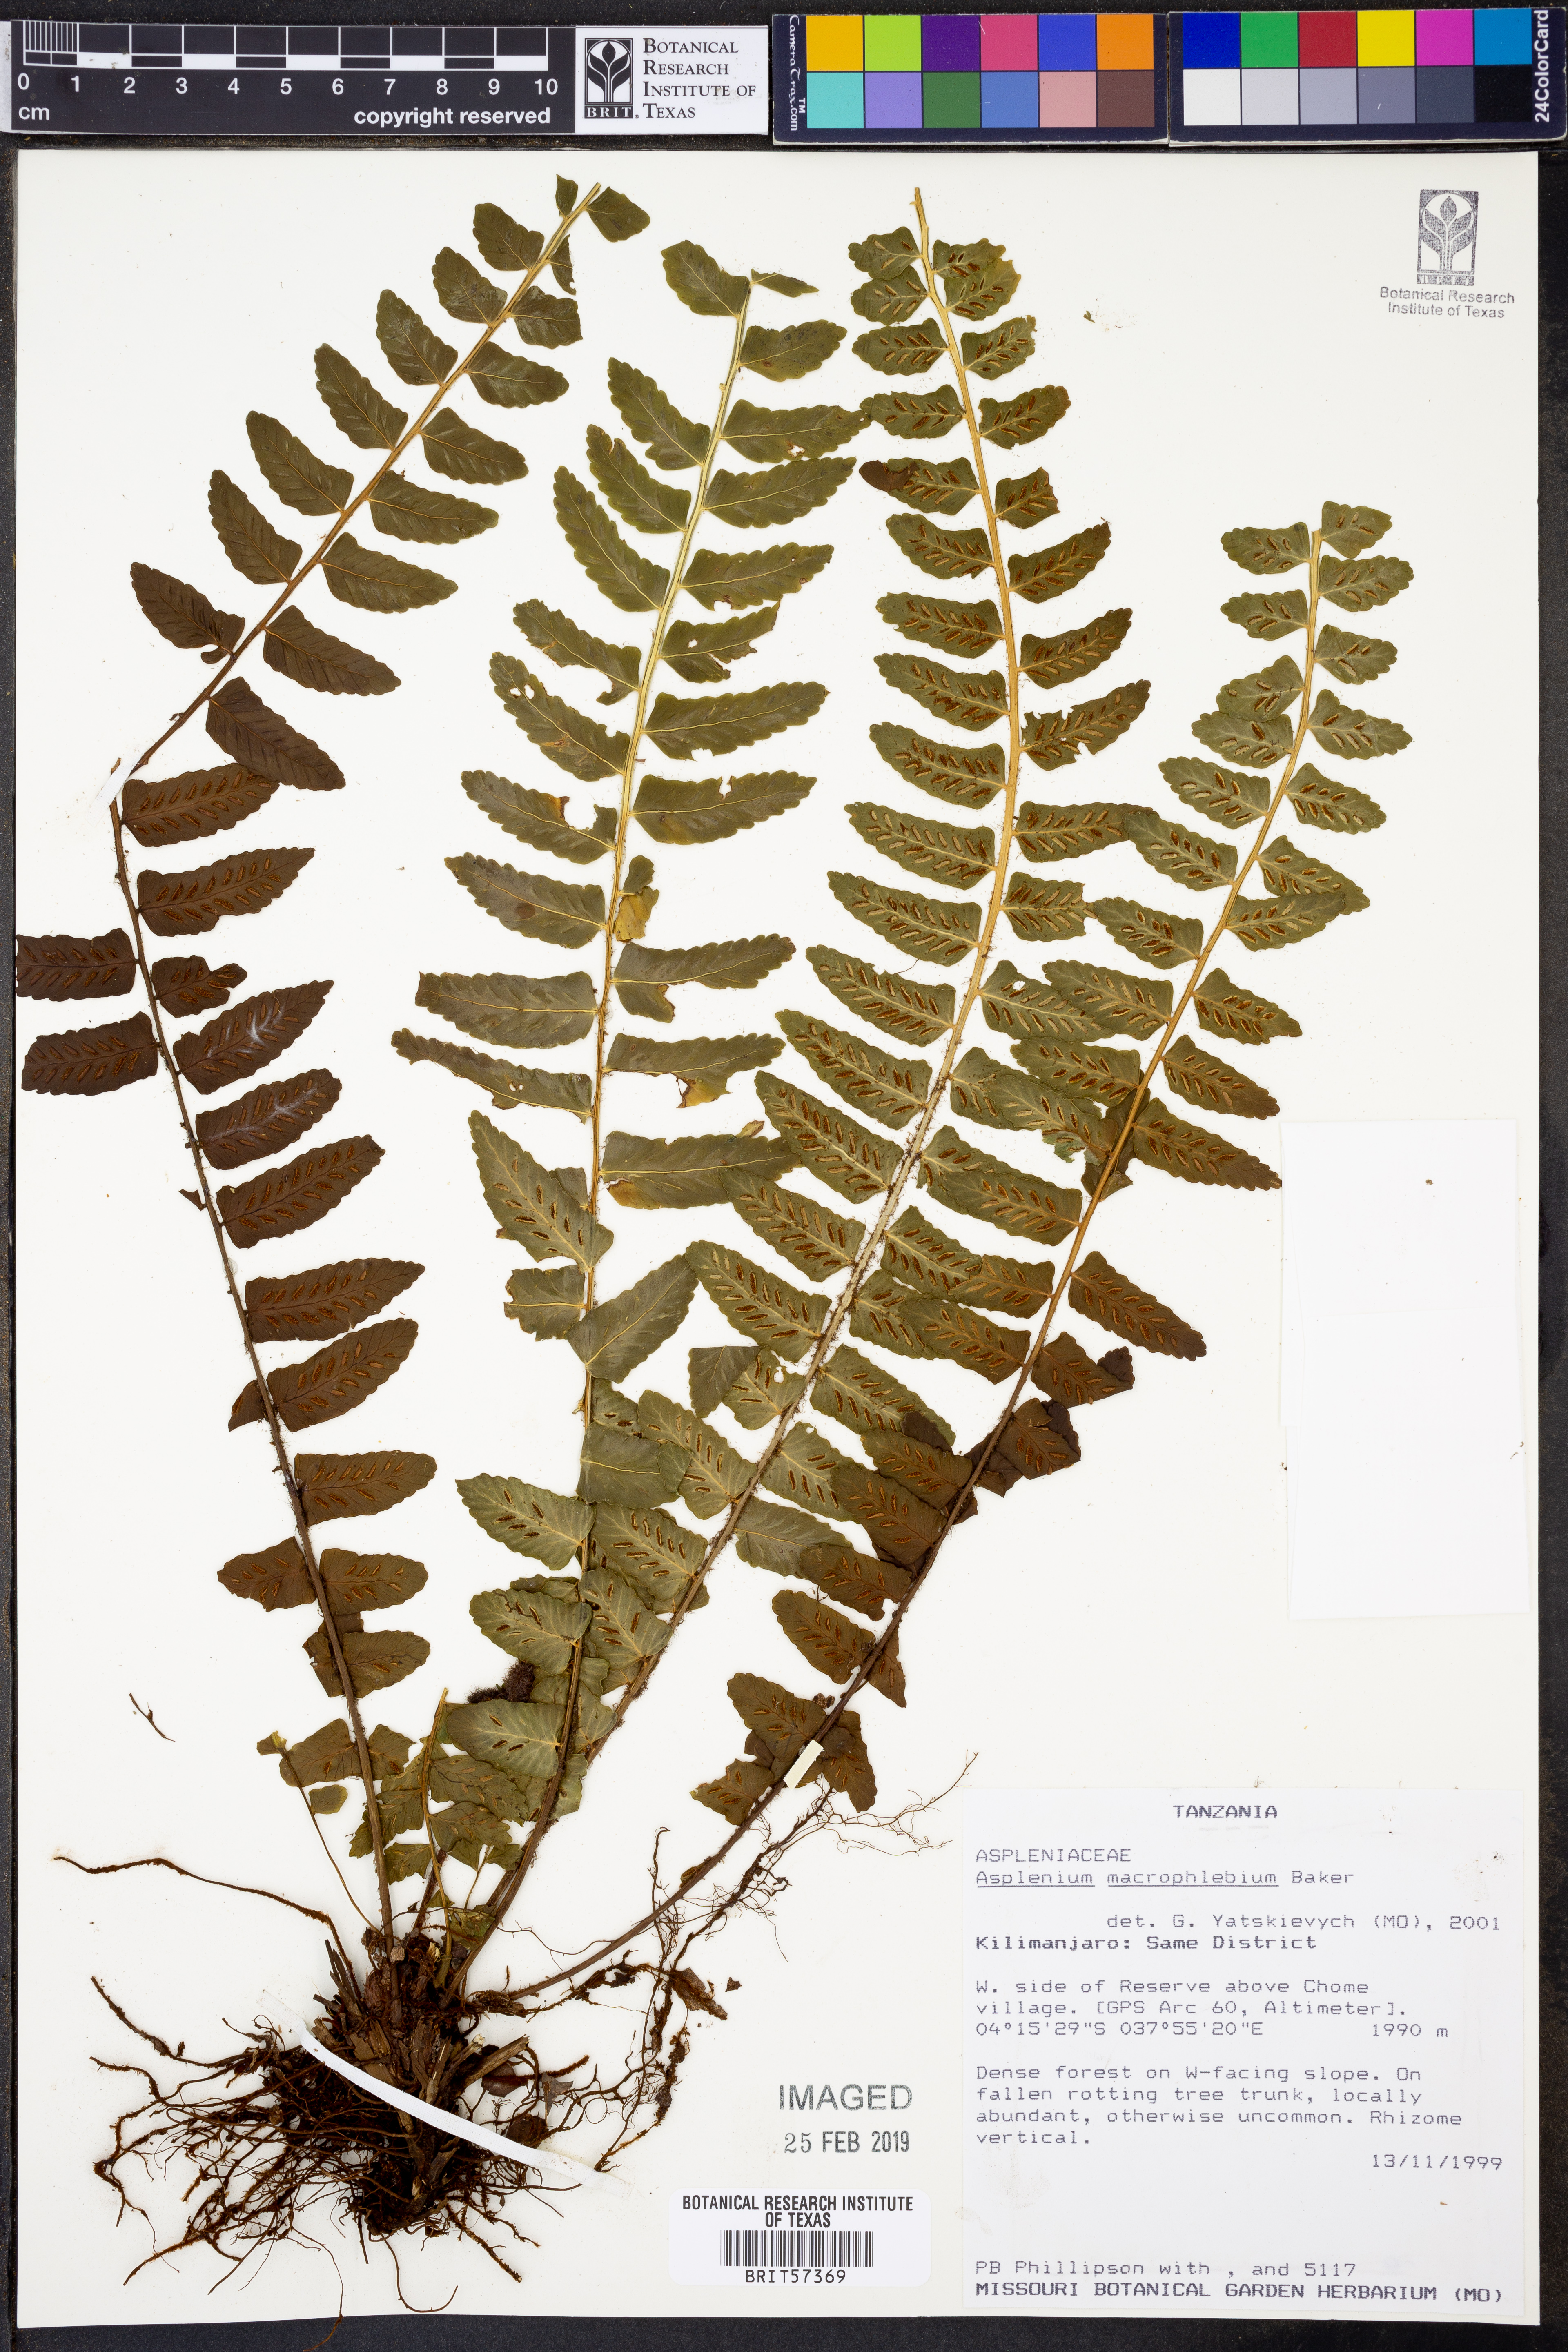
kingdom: Plantae
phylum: Tracheophyta
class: Polypodiopsida
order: Polypodiales
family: Aspleniaceae
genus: Asplenium
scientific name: Asplenium macrophlebium
